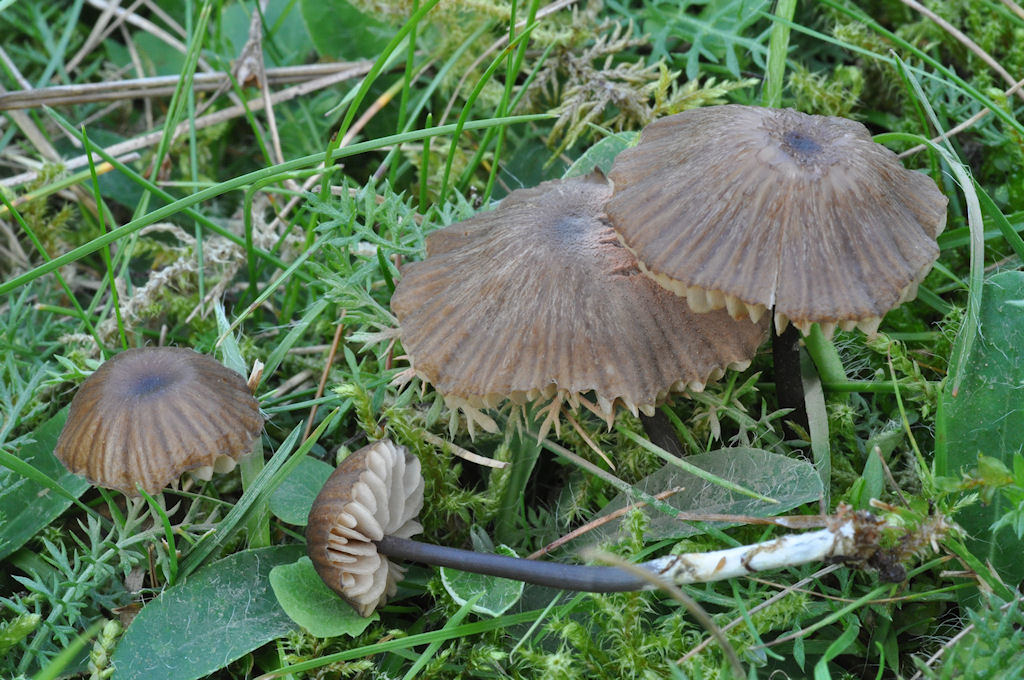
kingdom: Fungi
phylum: Basidiomycota
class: Agaricomycetes
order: Agaricales
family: Entolomataceae
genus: Entoloma
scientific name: Entoloma asprellum
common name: ru rødblad
